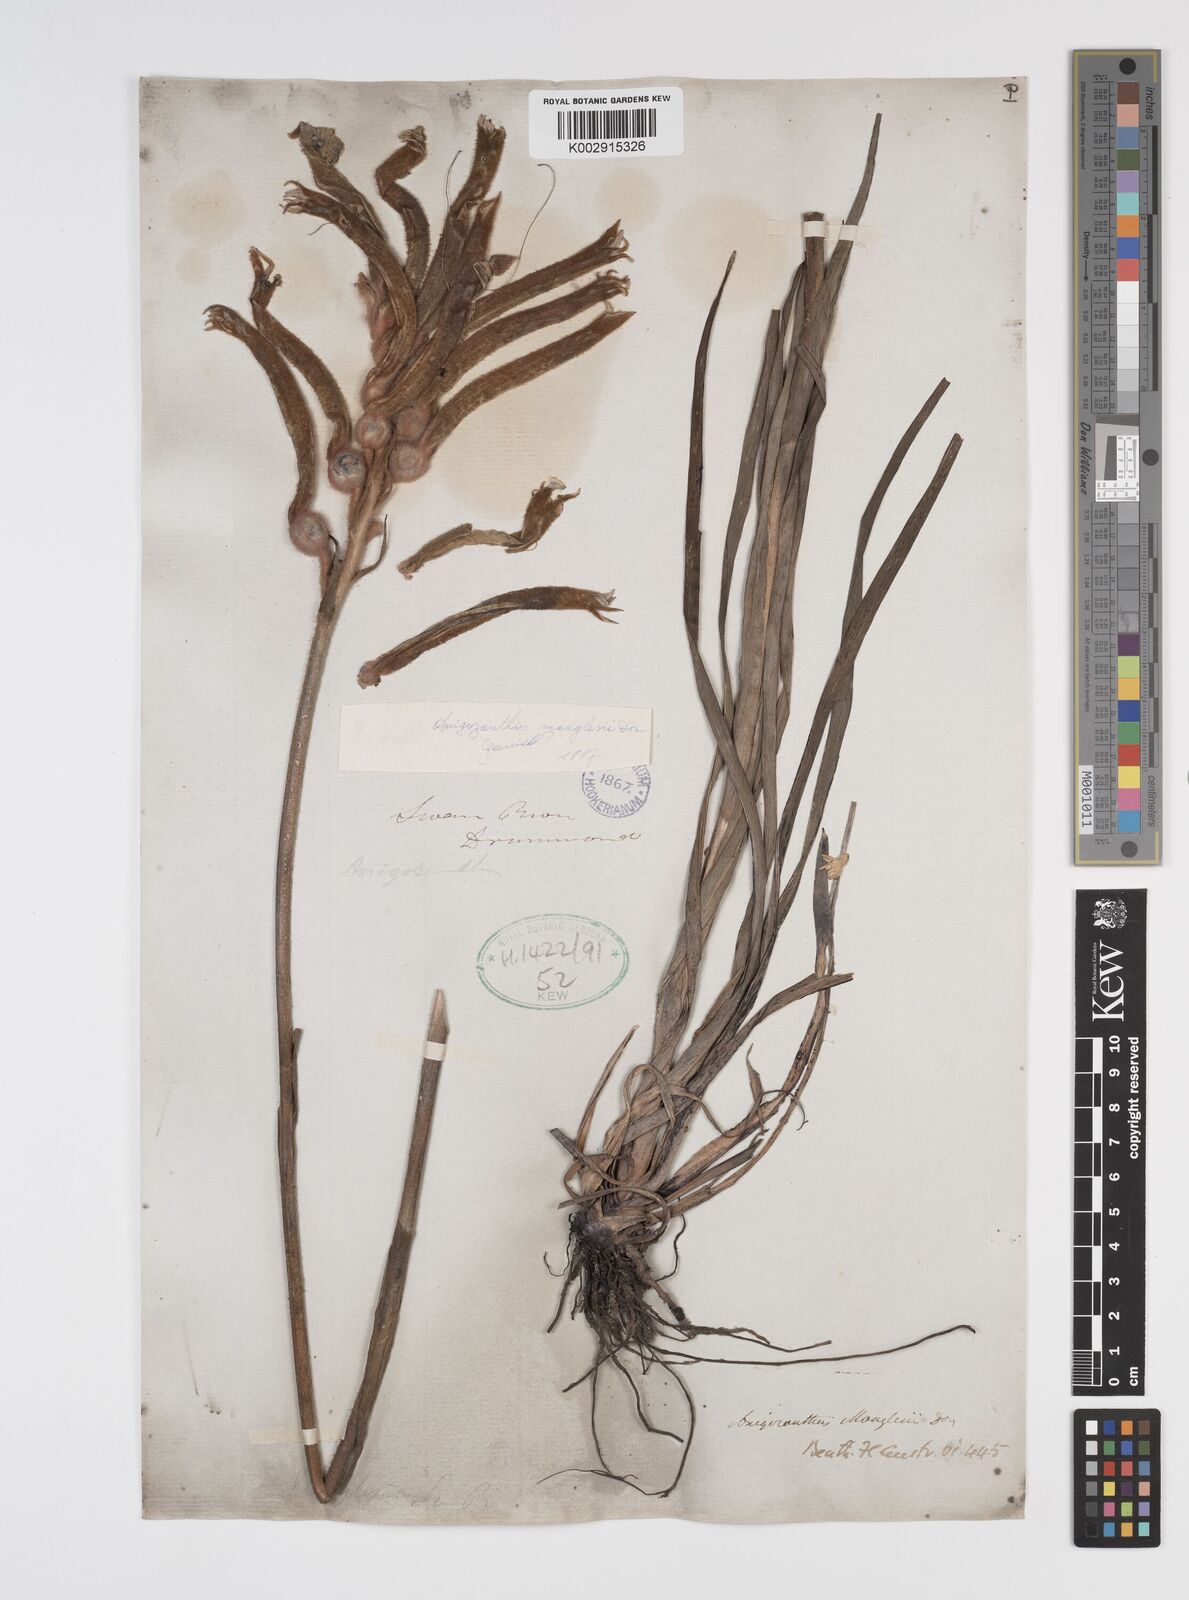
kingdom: Plantae
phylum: Tracheophyta
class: Liliopsida
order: Commelinales
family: Haemodoraceae
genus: Anigozanthos
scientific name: Anigozanthos manglesii
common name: Mangles's kangaroo-paw
